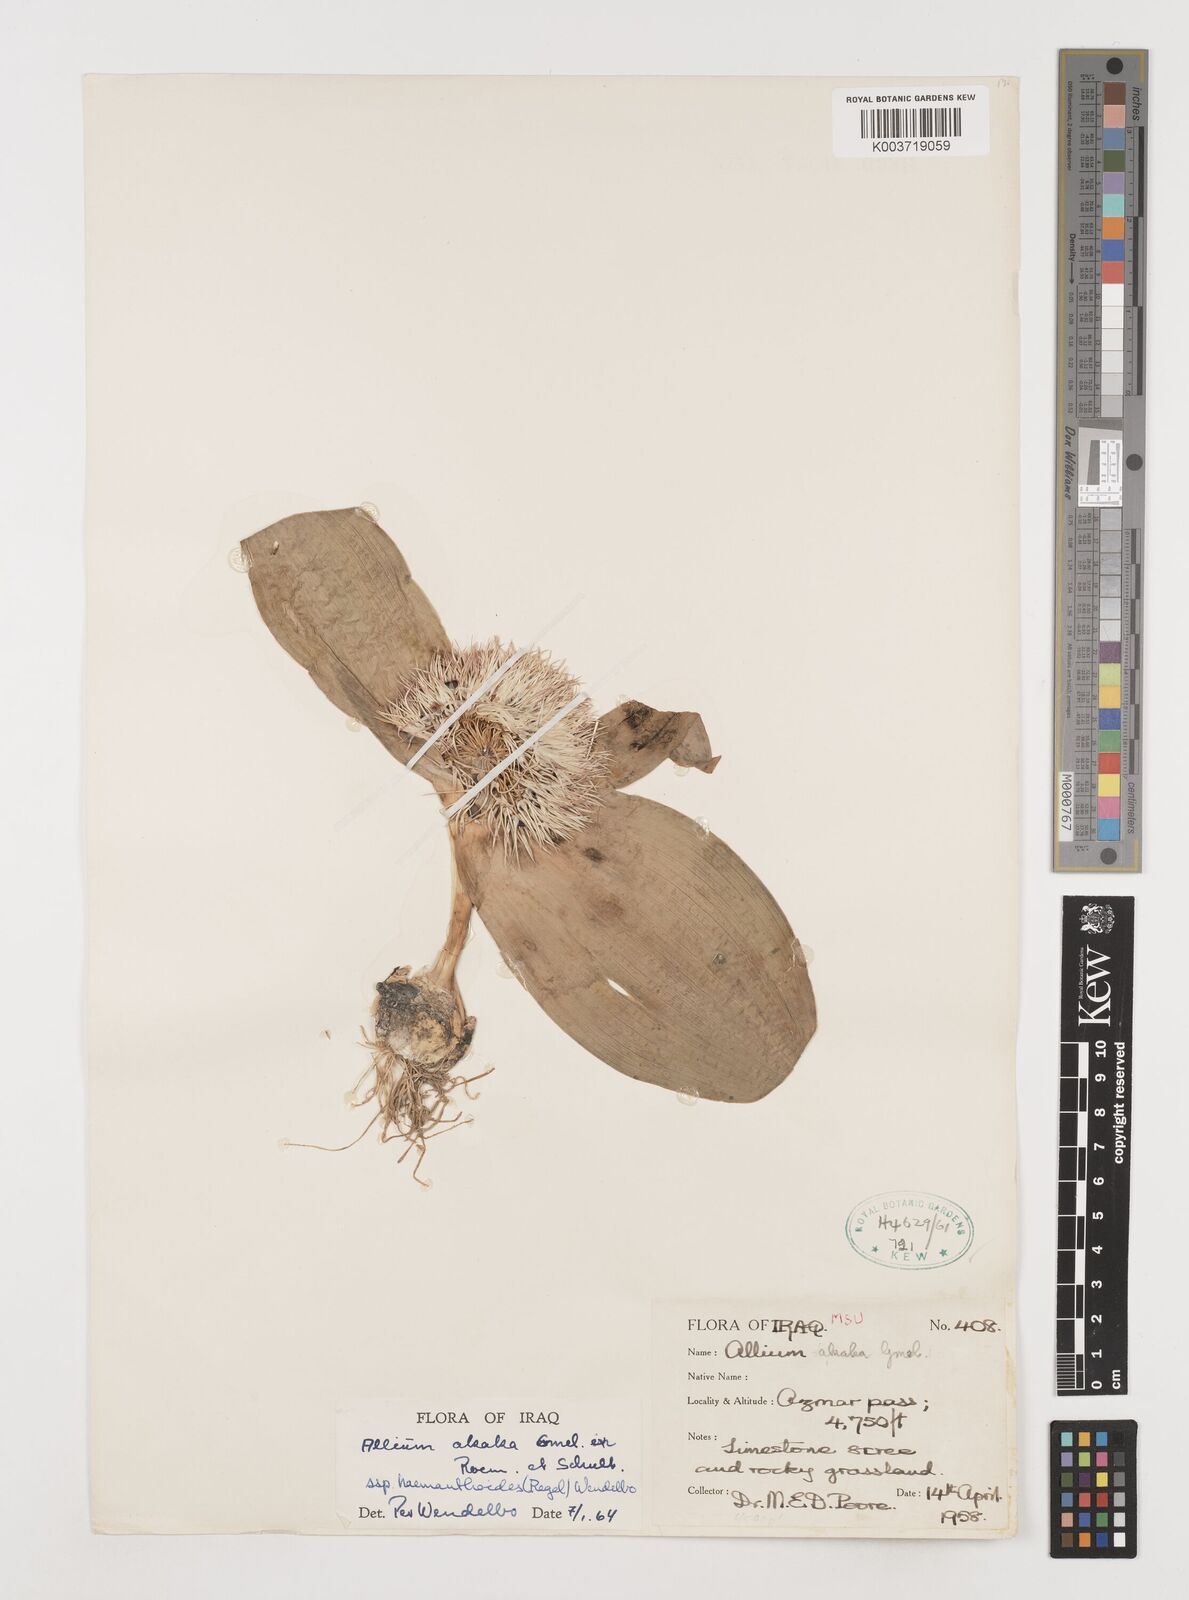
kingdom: Plantae
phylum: Tracheophyta
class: Liliopsida
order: Asparagales
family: Amaryllidaceae
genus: Allium
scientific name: Allium haemanthoides
